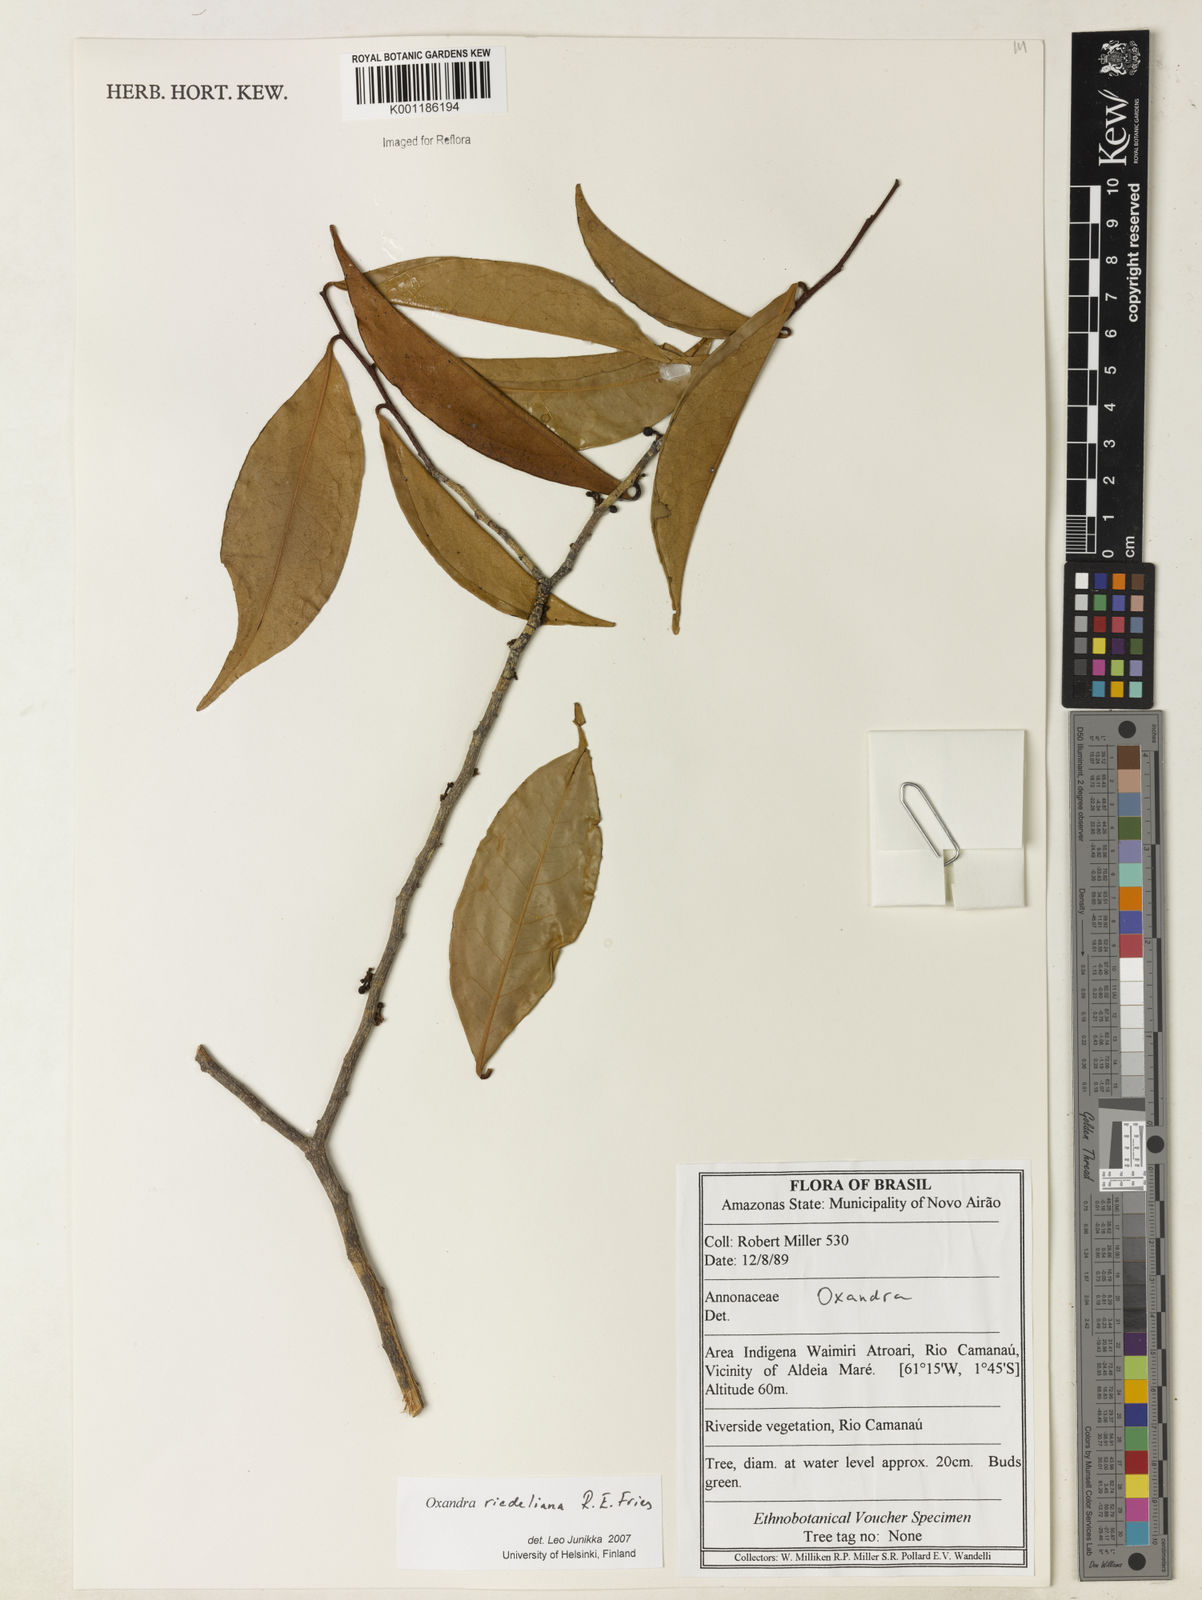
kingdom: Plantae
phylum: Tracheophyta
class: Magnoliopsida
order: Magnoliales
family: Annonaceae
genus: Oxandra
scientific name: Oxandra riedeliana
